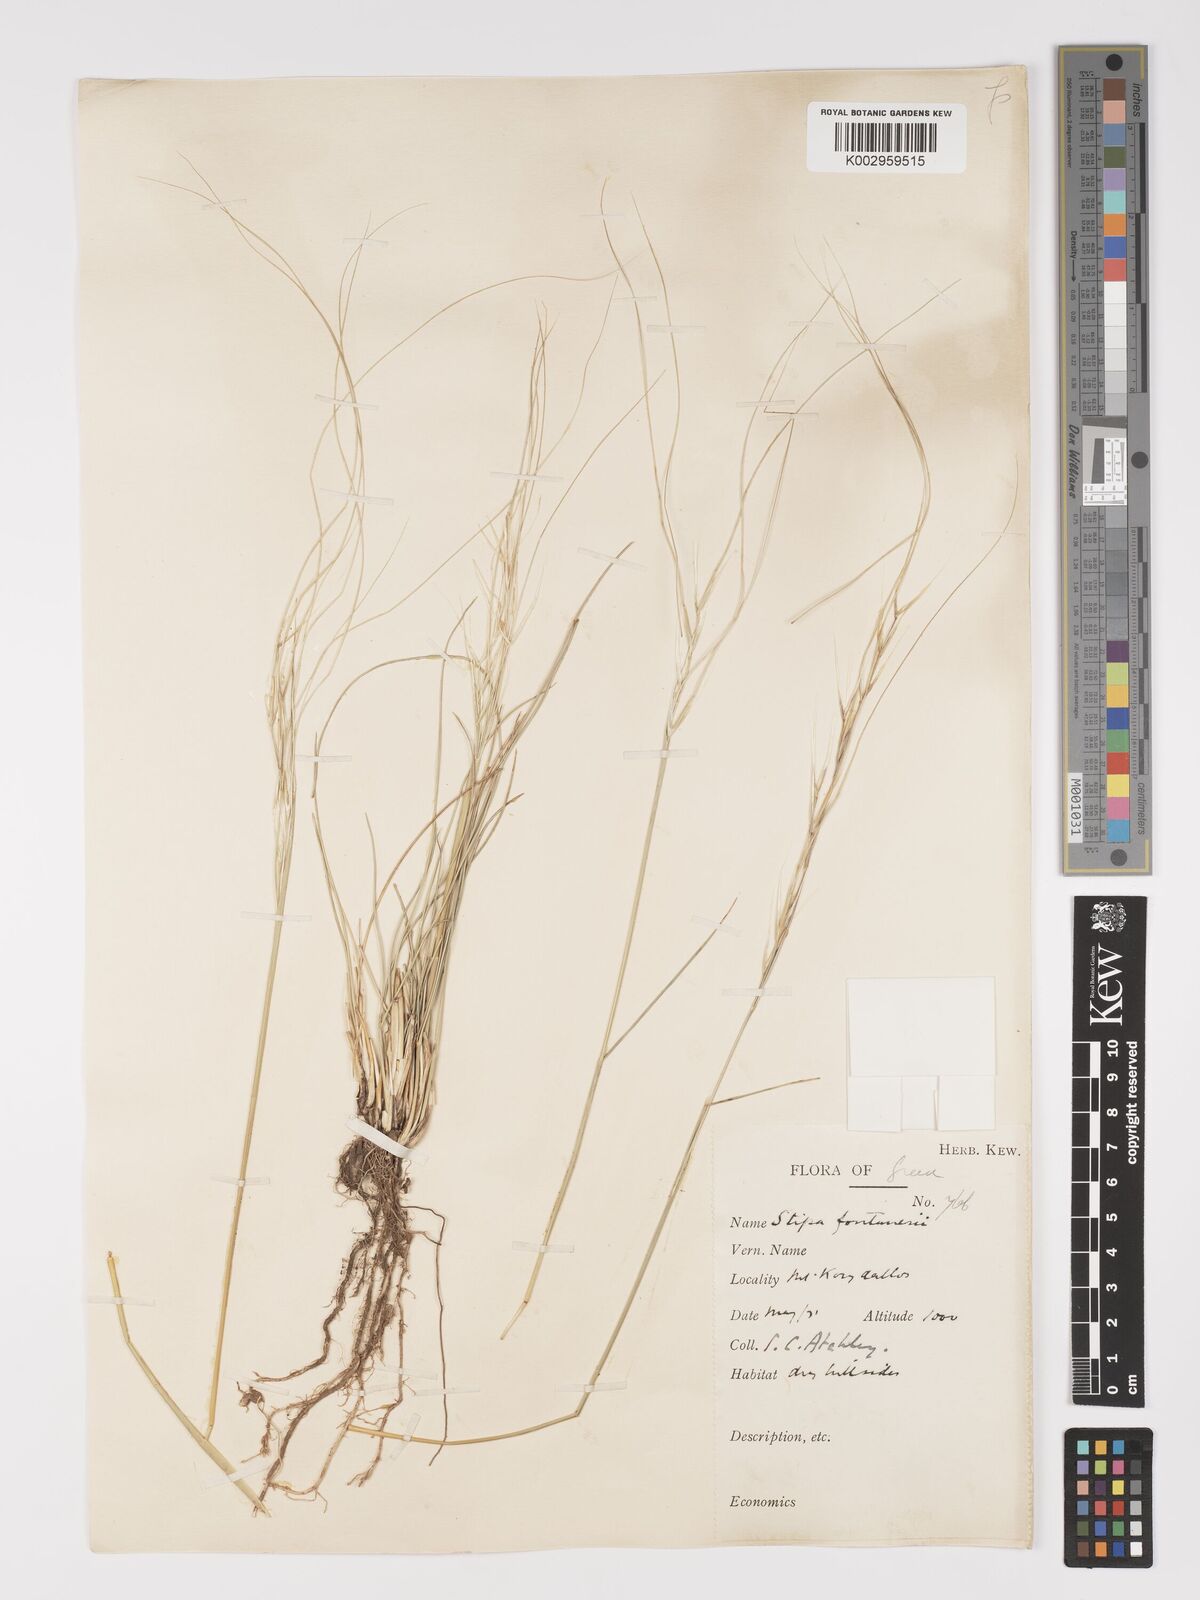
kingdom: Plantae
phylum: Tracheophyta
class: Liliopsida
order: Poales
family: Poaceae
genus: Stipa
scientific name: Stipa holosericea
